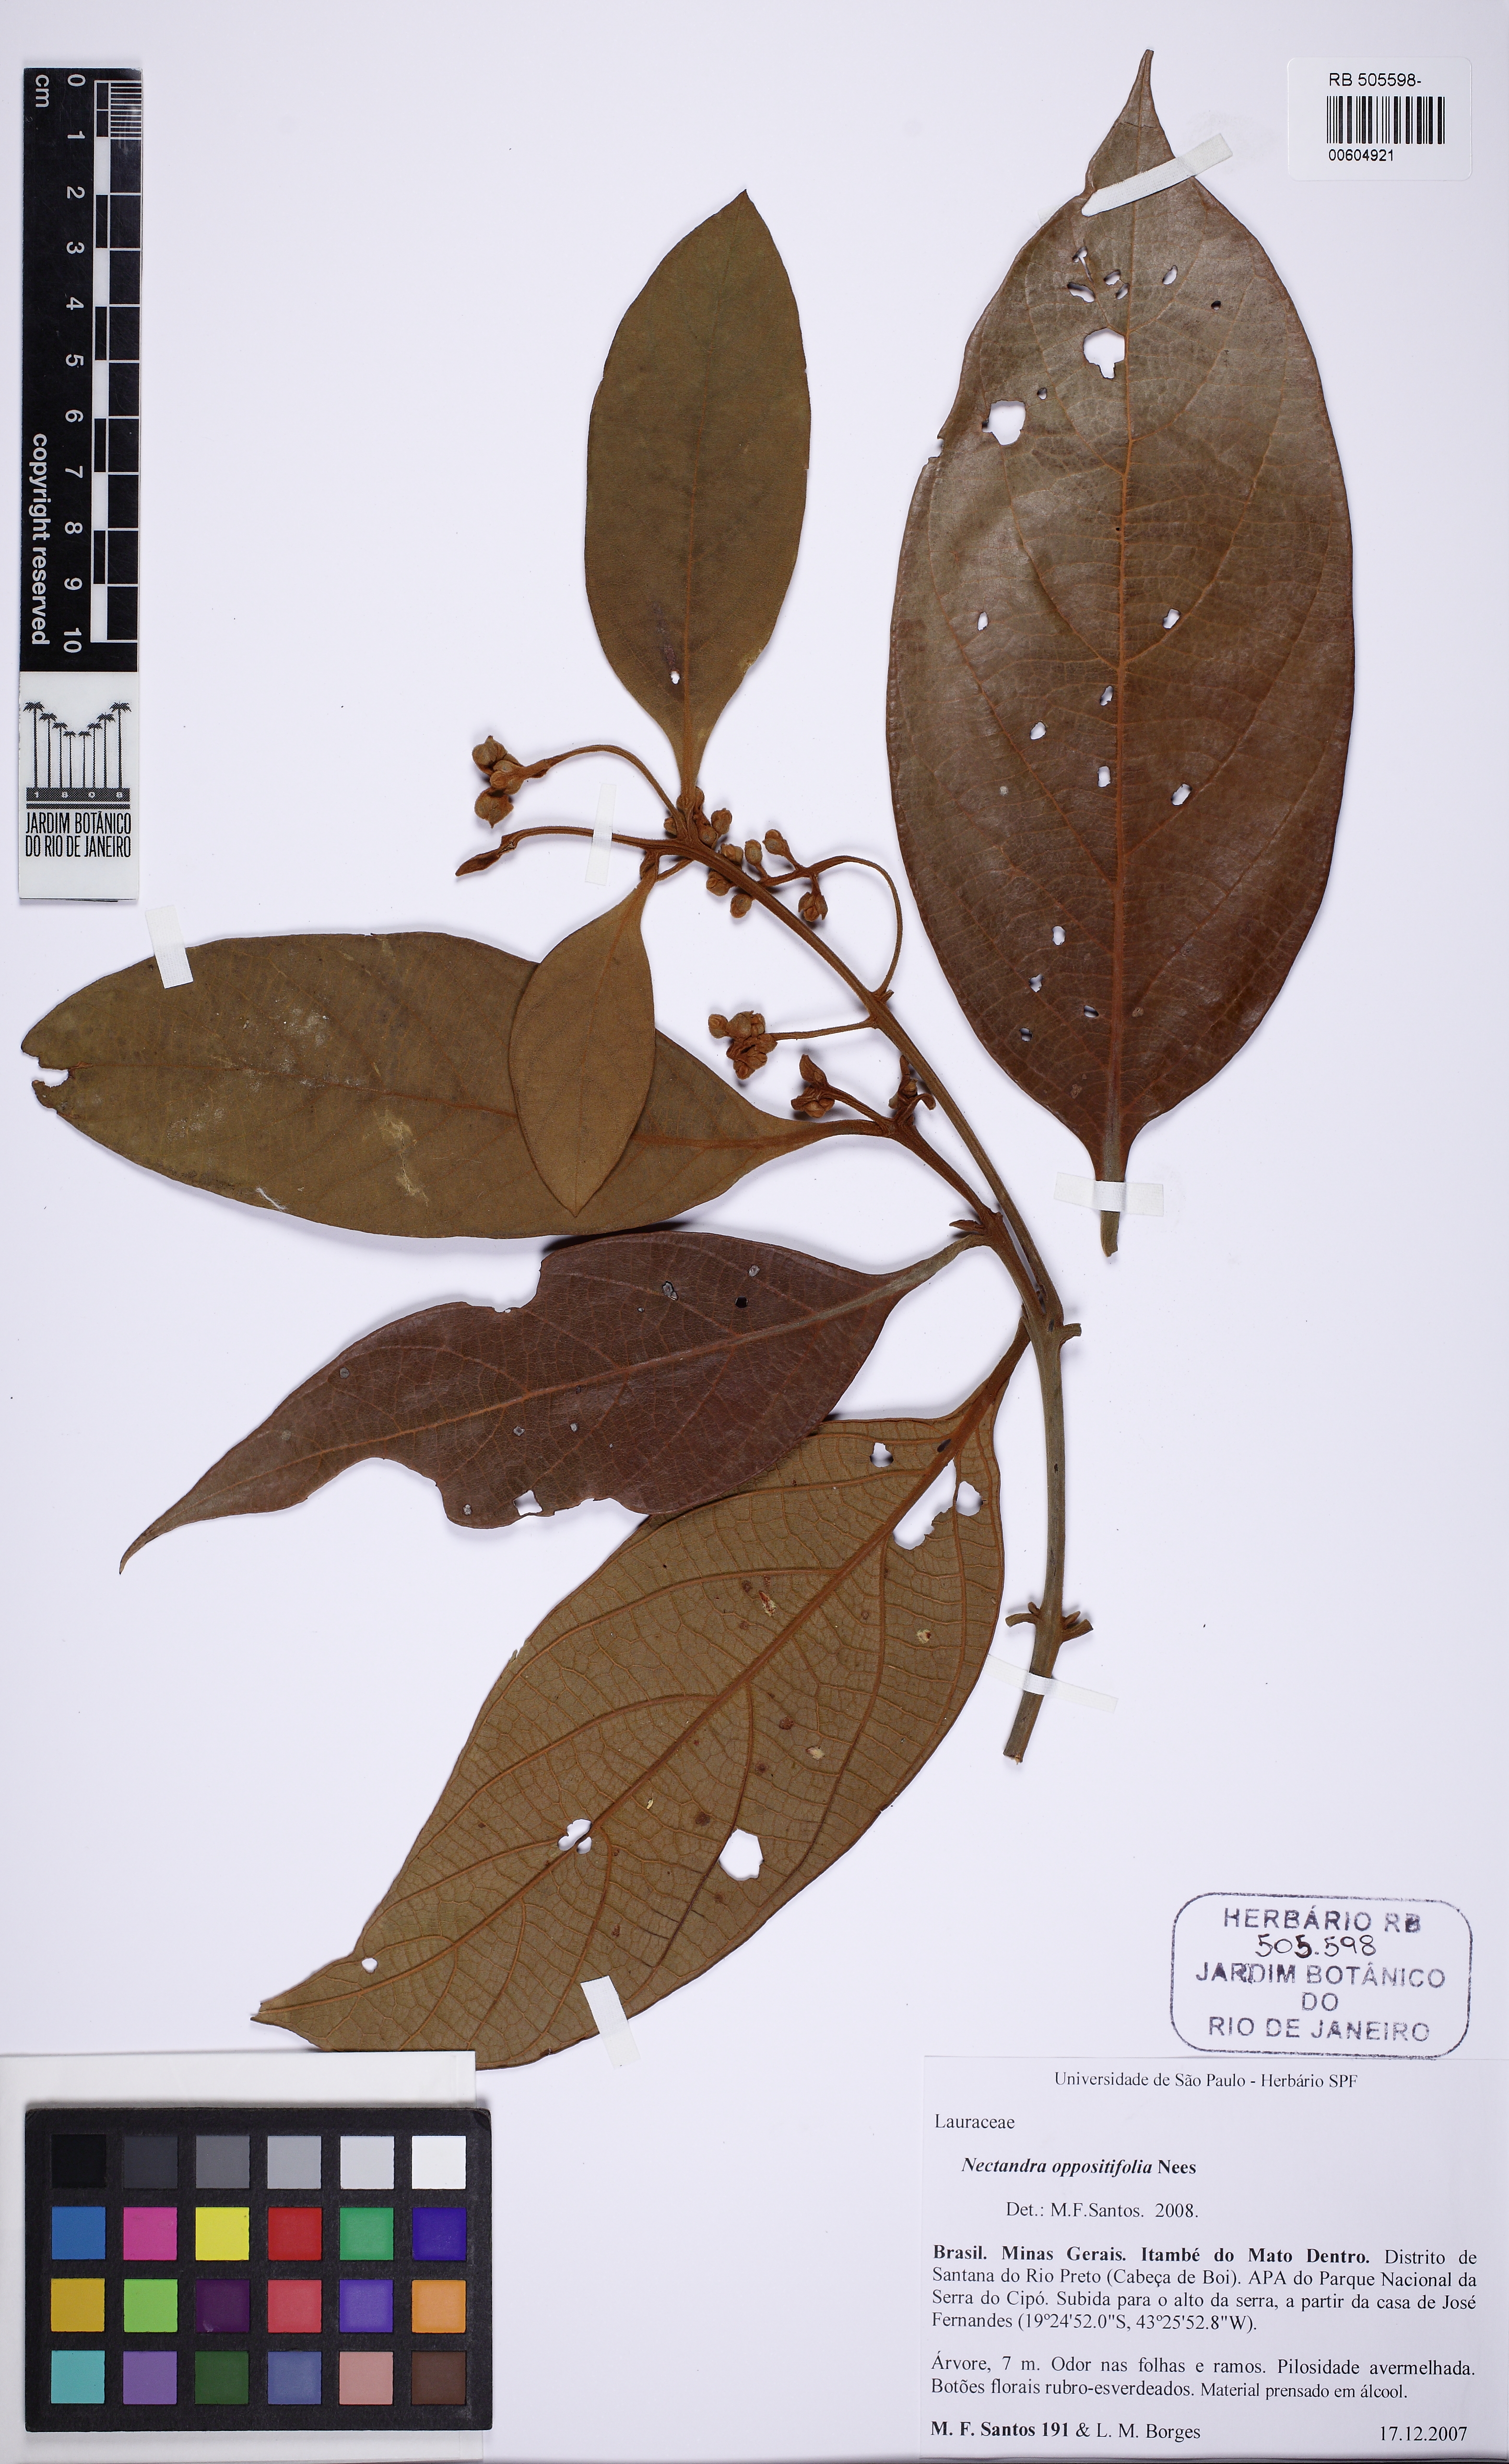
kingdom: Plantae
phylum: Tracheophyta
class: Magnoliopsida
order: Laurales
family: Lauraceae
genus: Nectandra
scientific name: Nectandra oppositifolia
